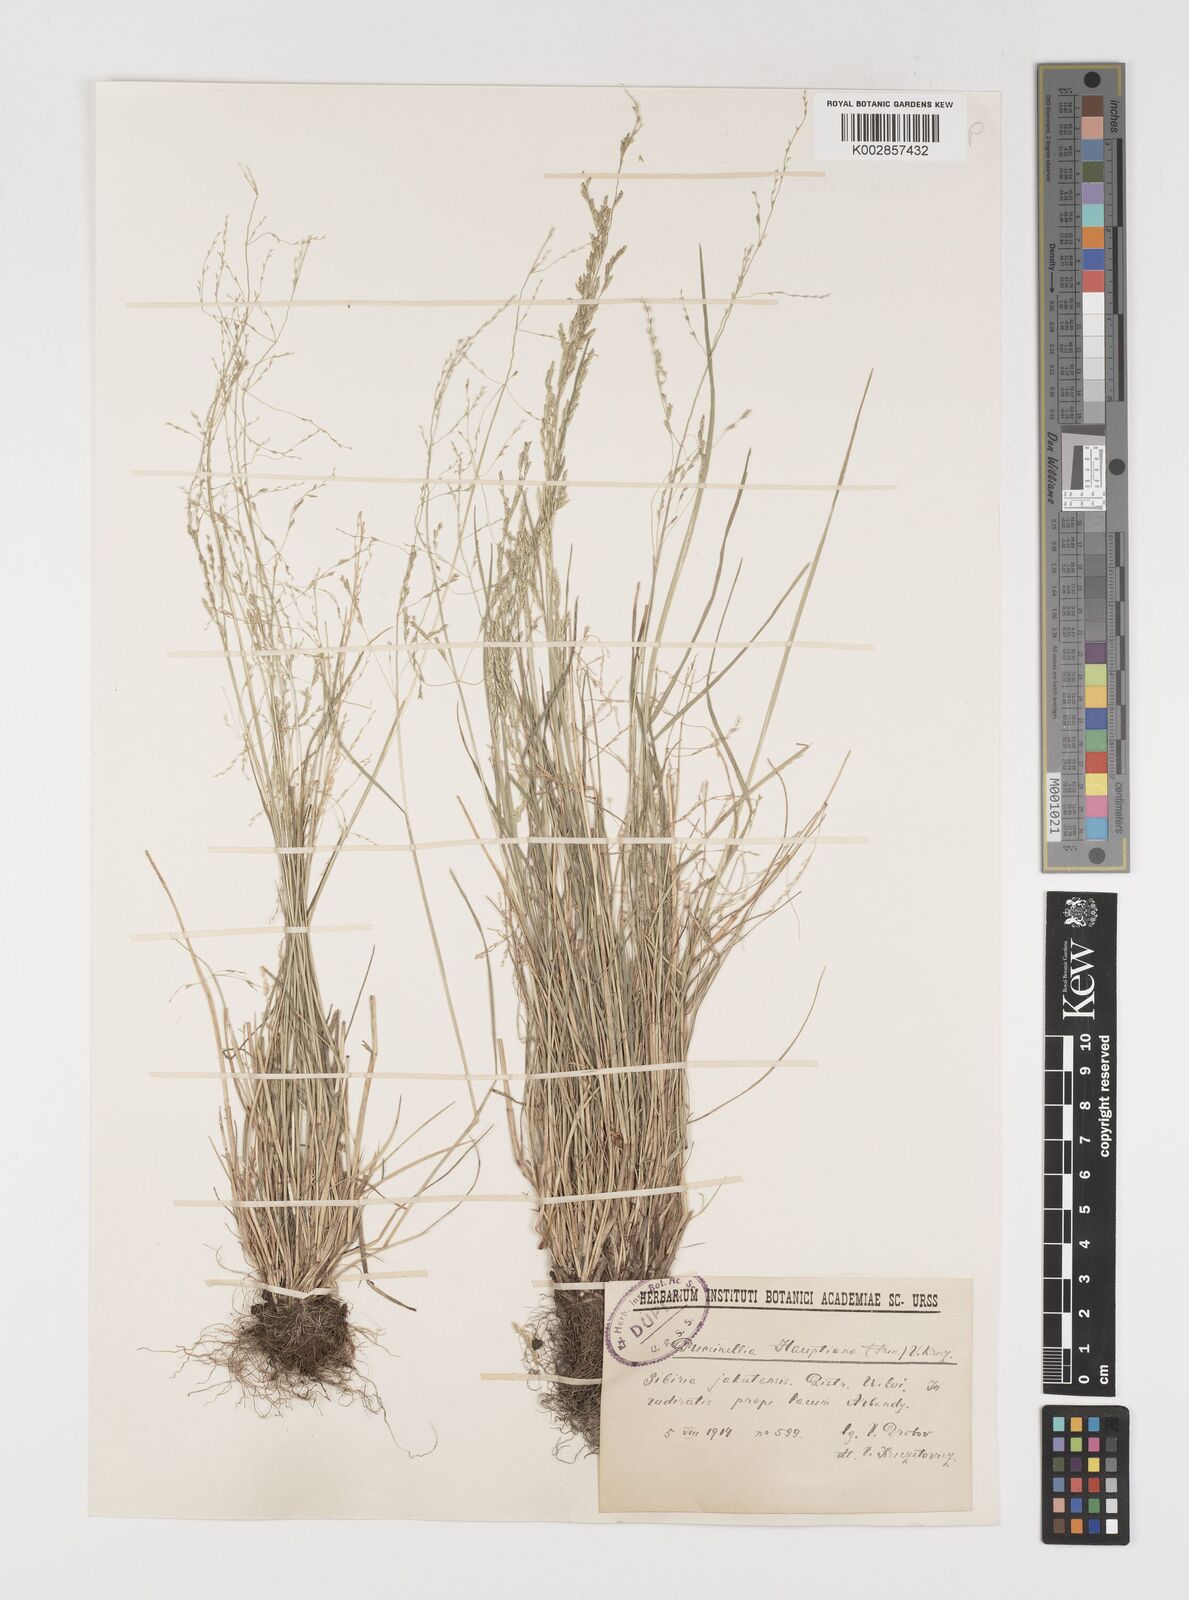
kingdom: Plantae
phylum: Tracheophyta
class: Liliopsida
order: Poales
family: Poaceae
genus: Puccinellia
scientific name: Puccinellia distans
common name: Weeping alkaligrass
